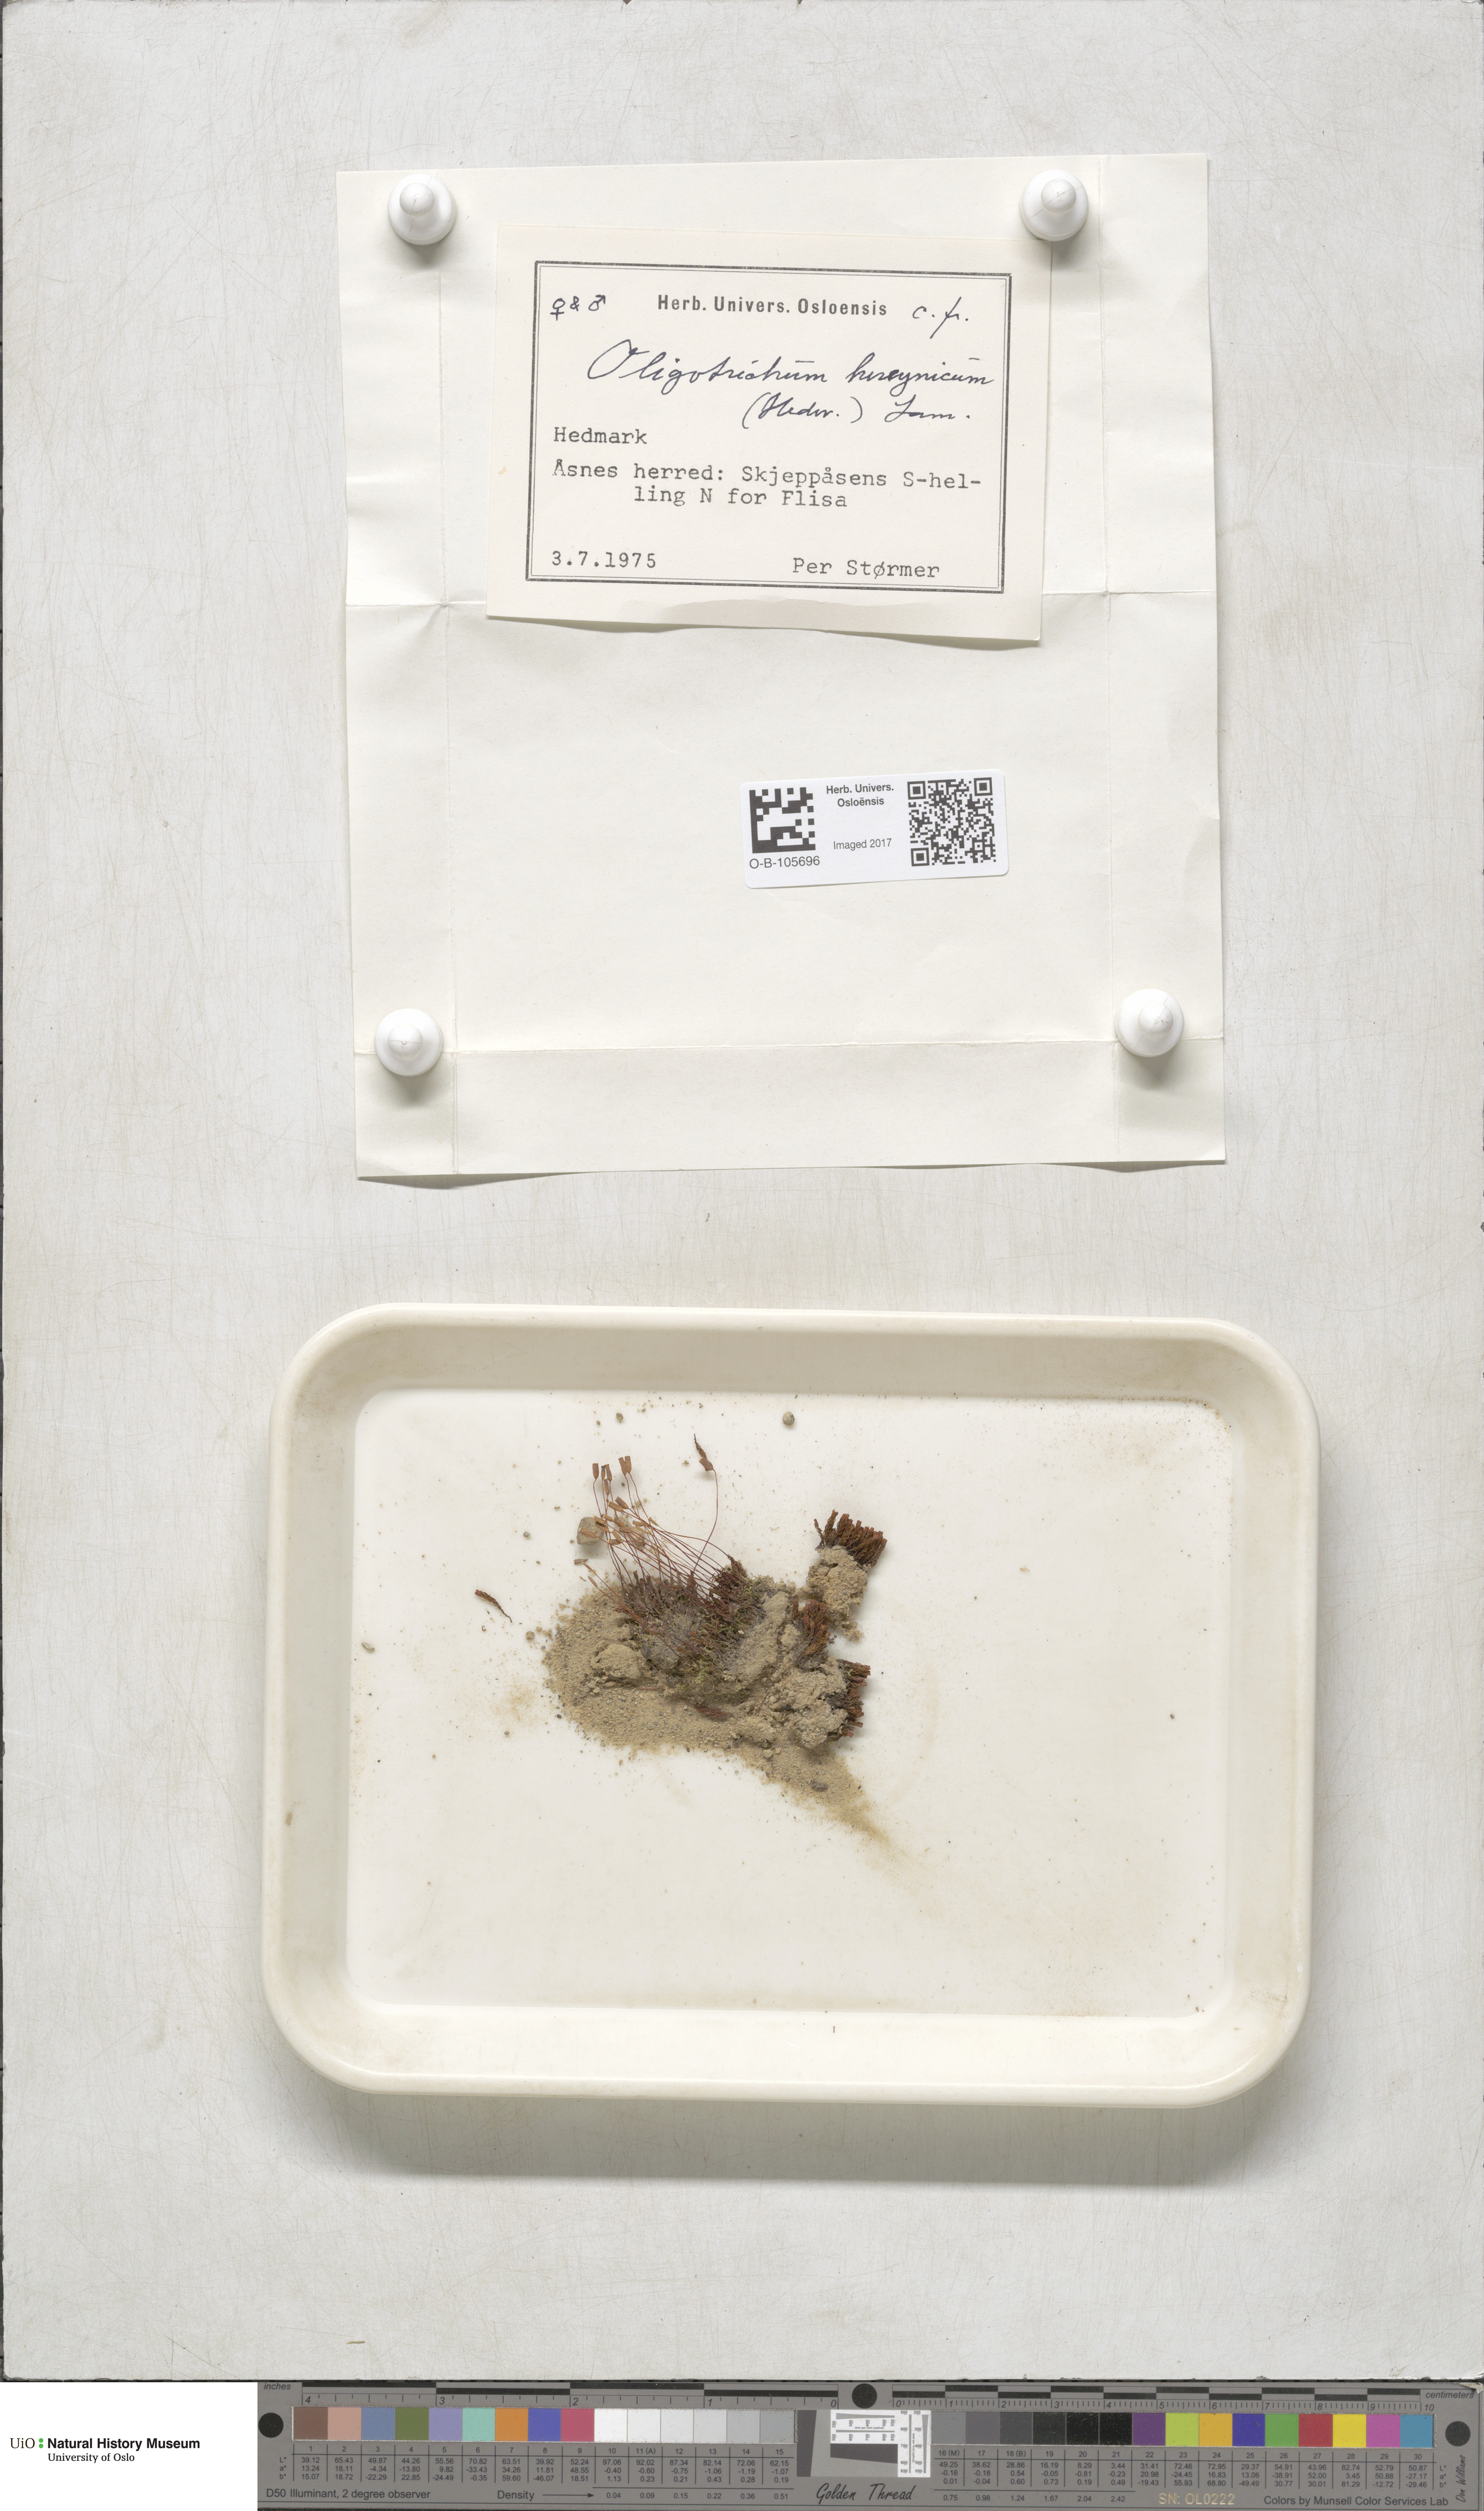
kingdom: Plantae
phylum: Bryophyta
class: Polytrichopsida
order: Polytrichales
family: Polytrichaceae
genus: Oligotrichum
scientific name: Oligotrichum hercynicum
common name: Hercynian hair moss
